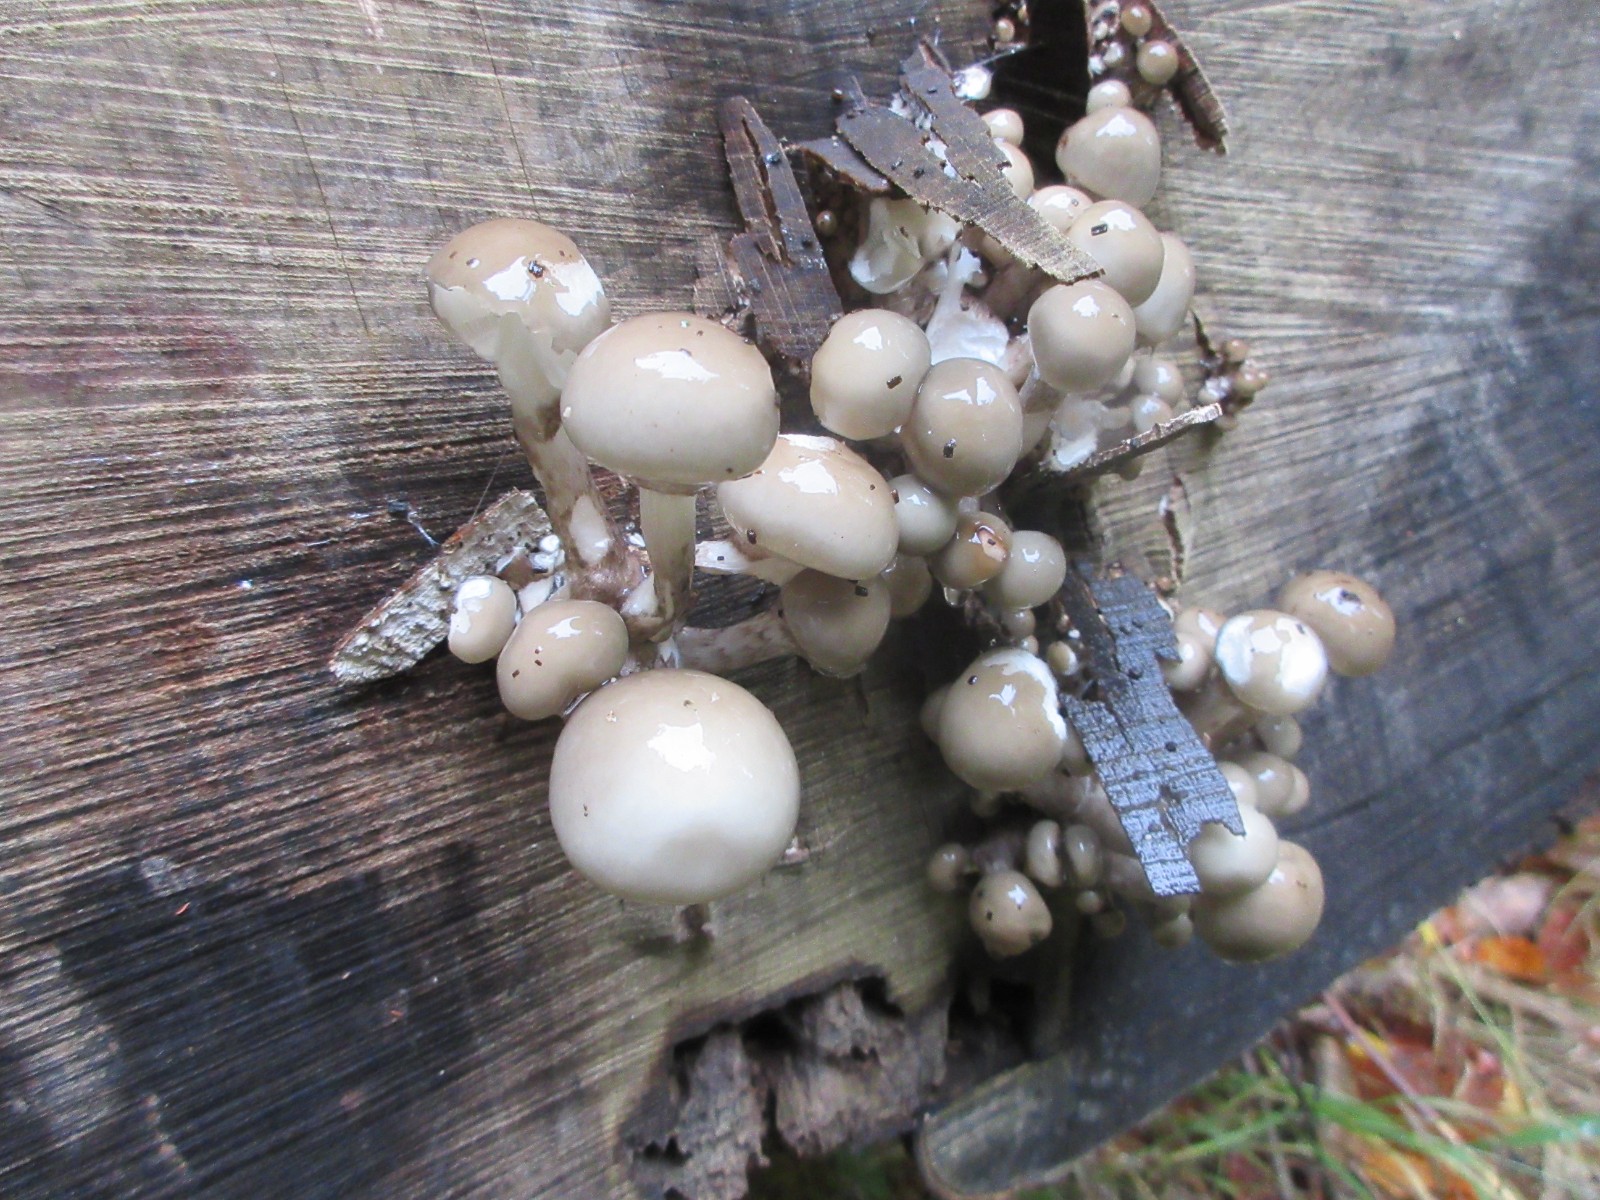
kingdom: Fungi
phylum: Basidiomycota
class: Agaricomycetes
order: Agaricales
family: Physalacriaceae
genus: Mucidula
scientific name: Mucidula mucida
